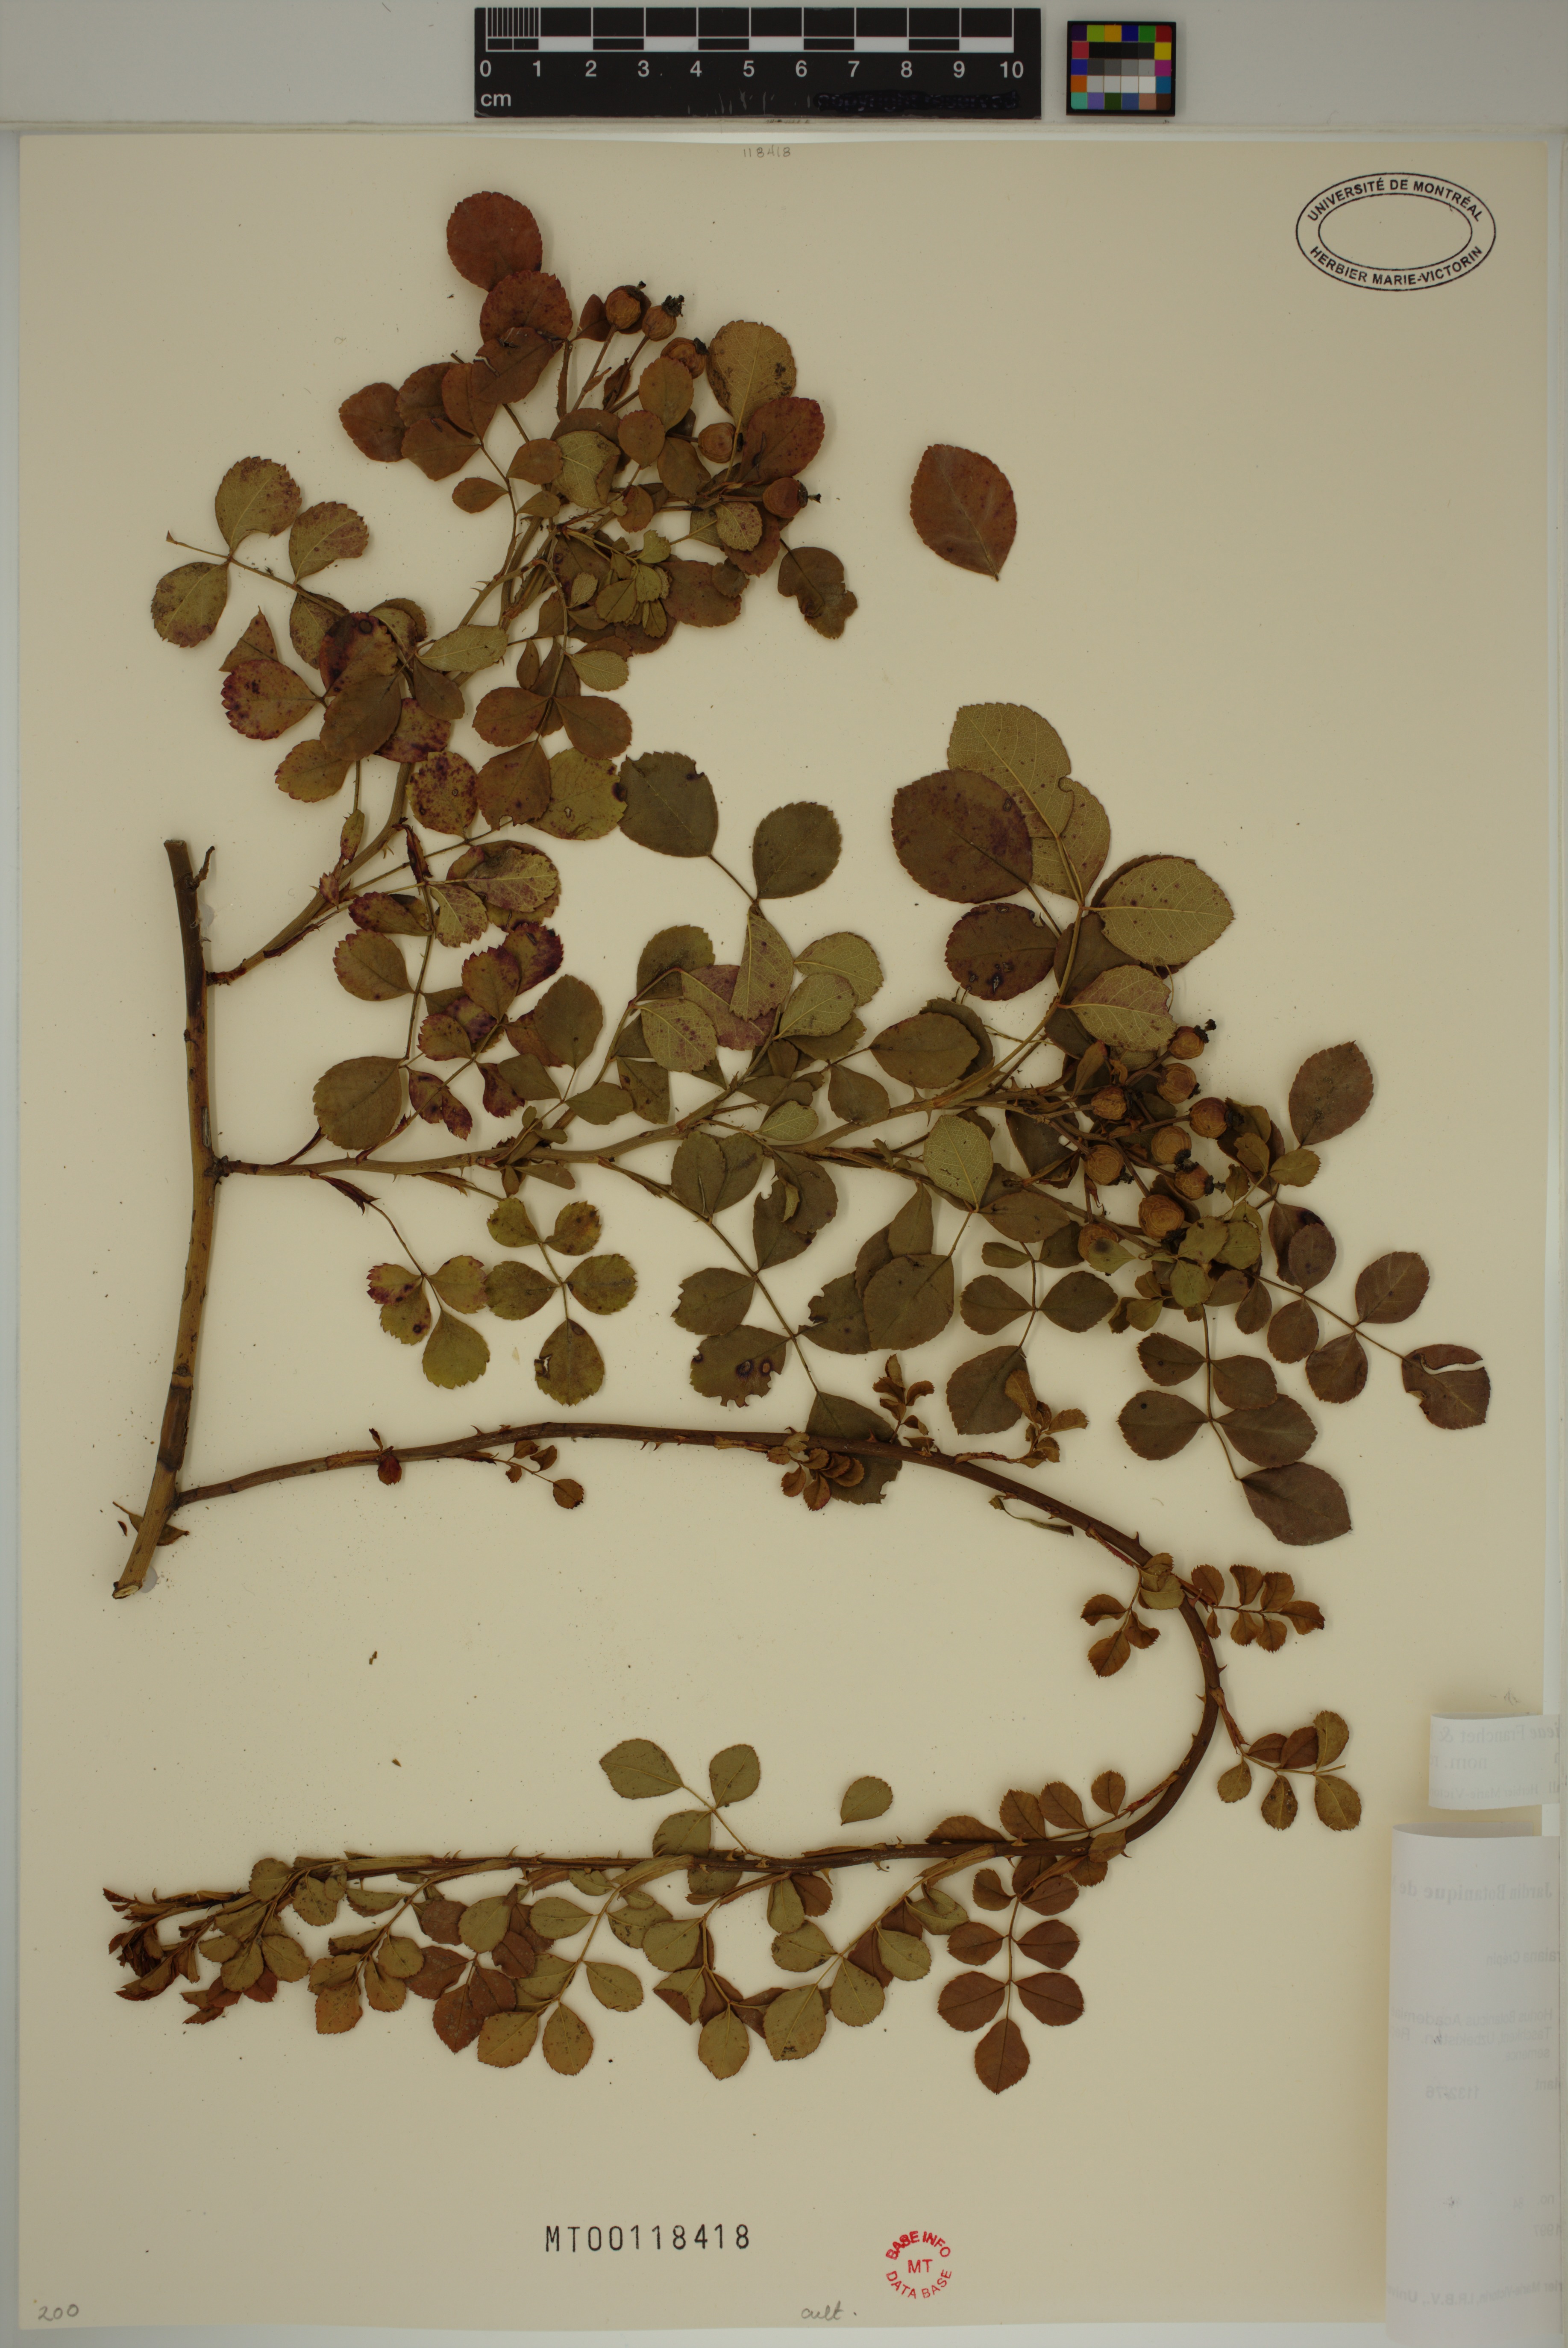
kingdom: Plantae
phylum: Tracheophyta
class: Magnoliopsida
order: Rosales
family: Rosaceae
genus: Rosa
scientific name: Rosa luciae
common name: Memorial rose
